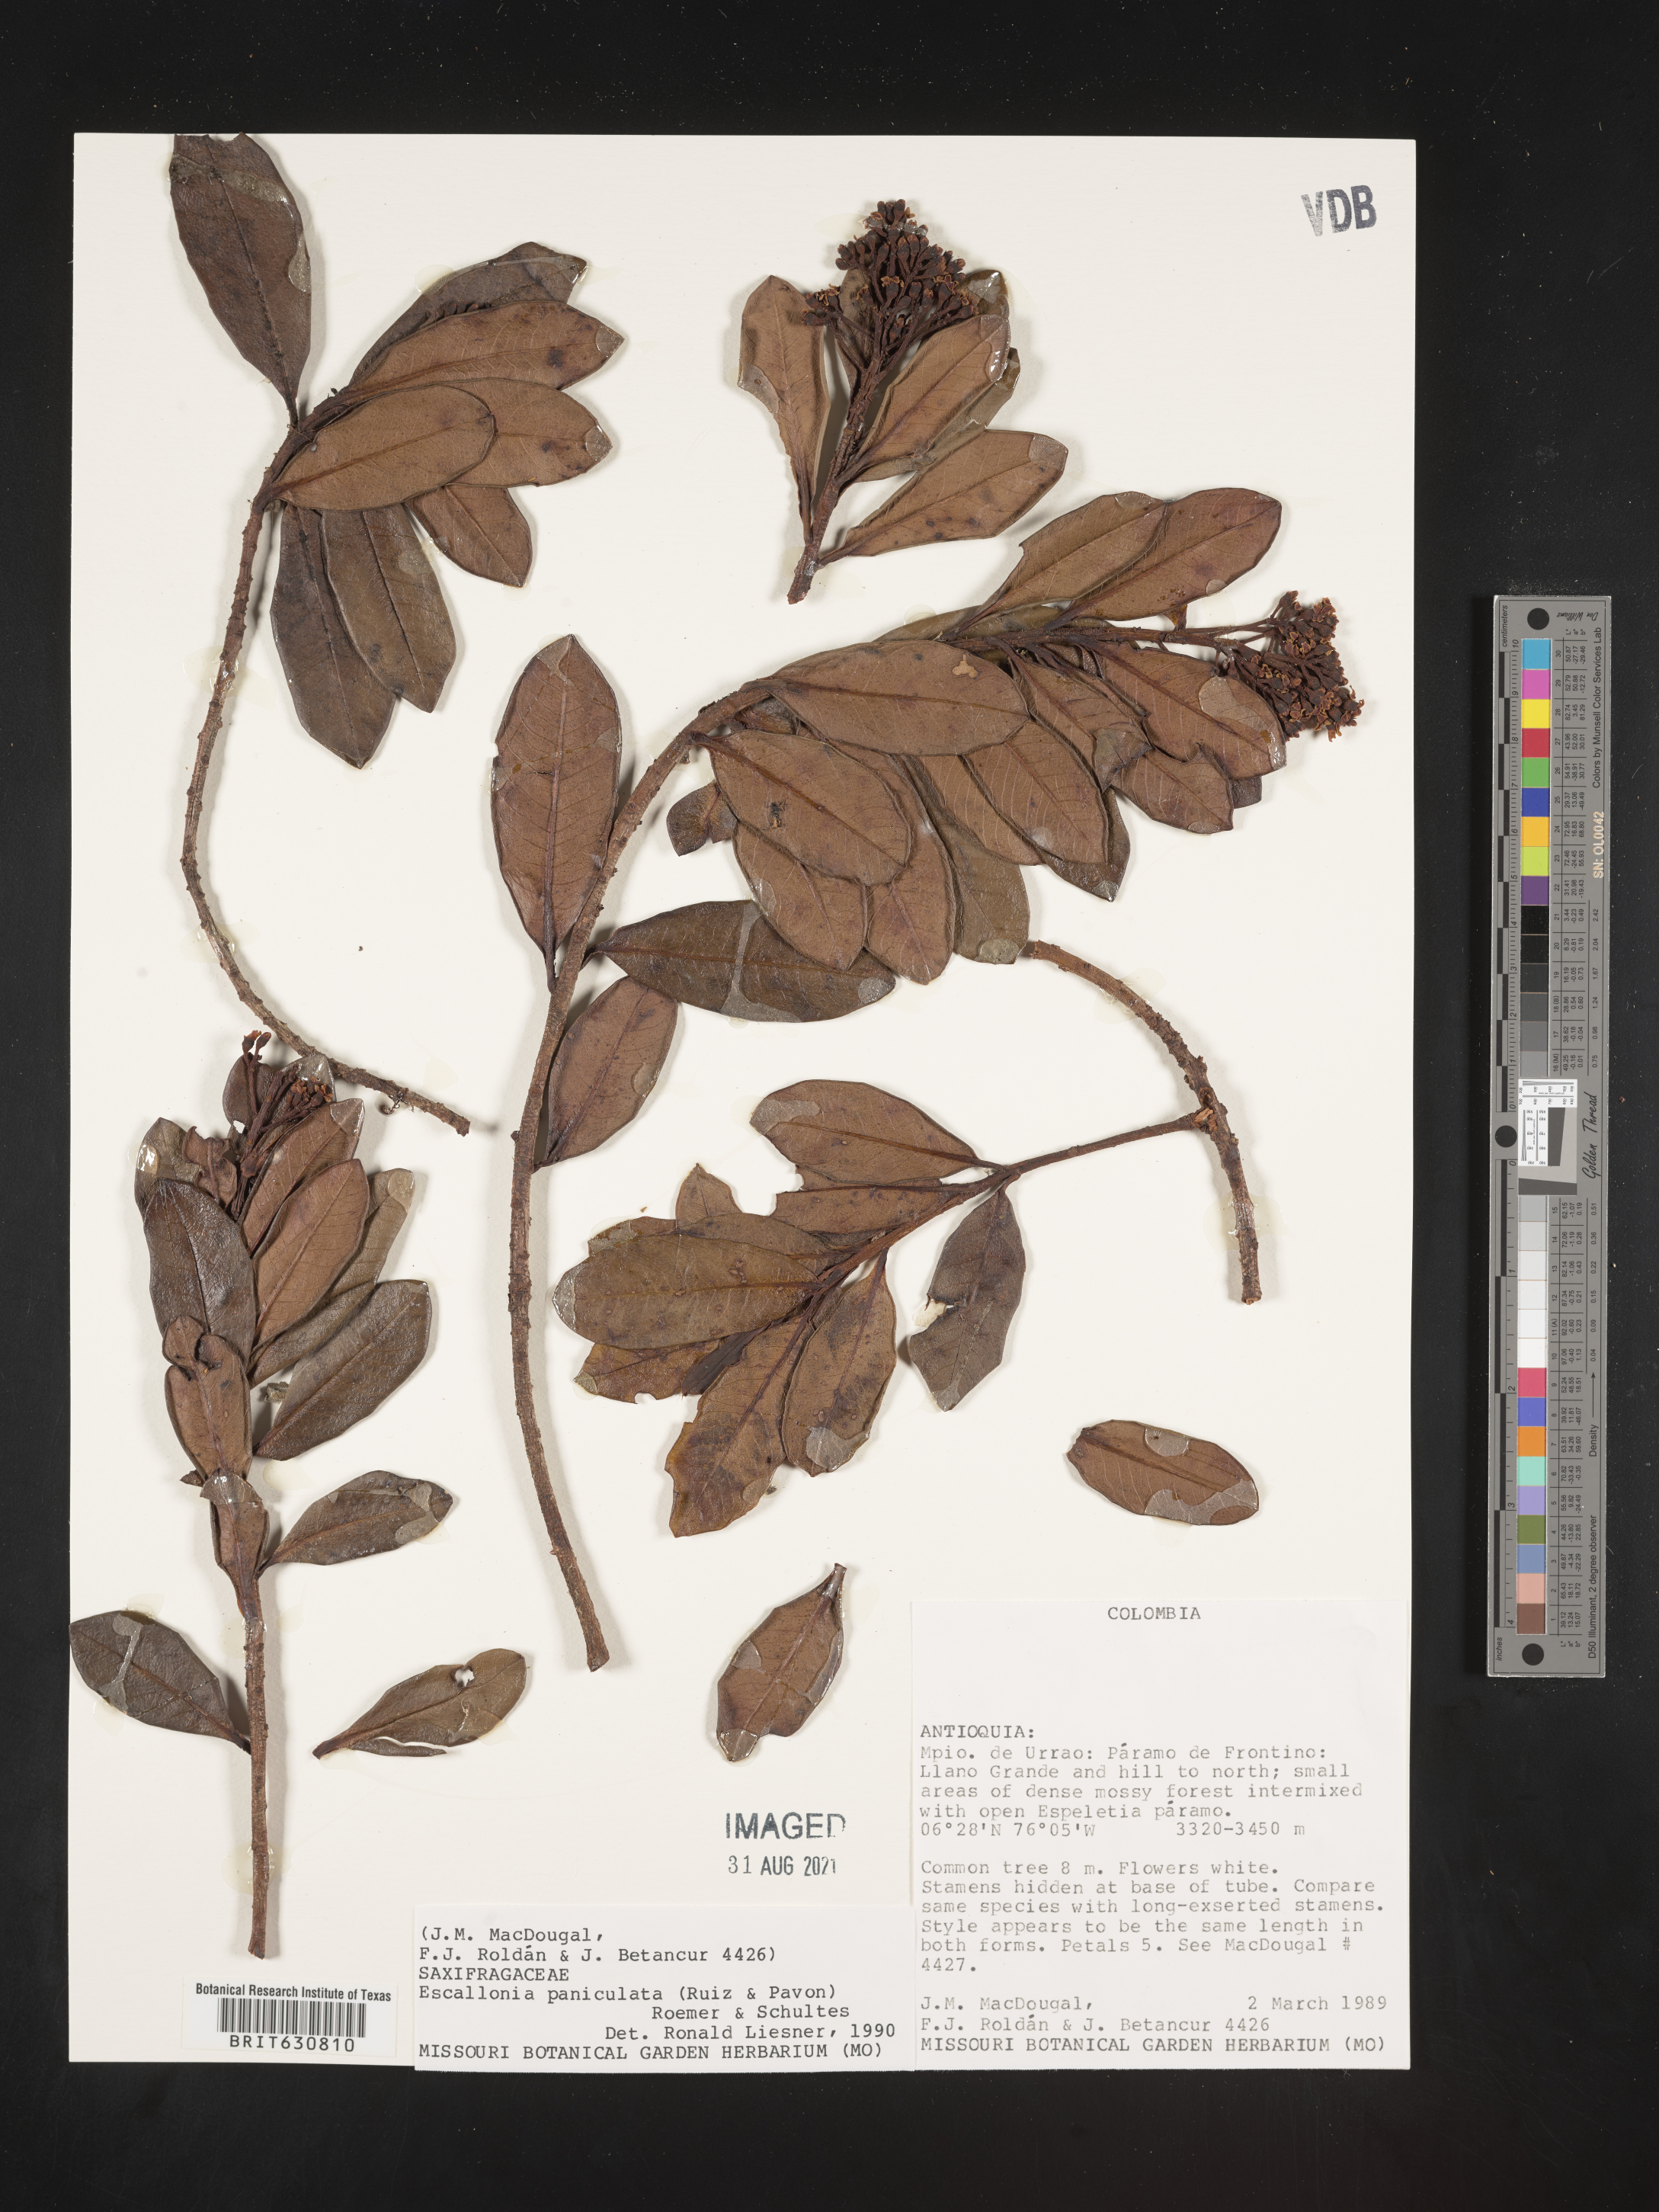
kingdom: Plantae
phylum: Tracheophyta
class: Magnoliopsida
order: Escalloniales
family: Escalloniaceae
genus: Escallonia
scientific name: Escallonia
